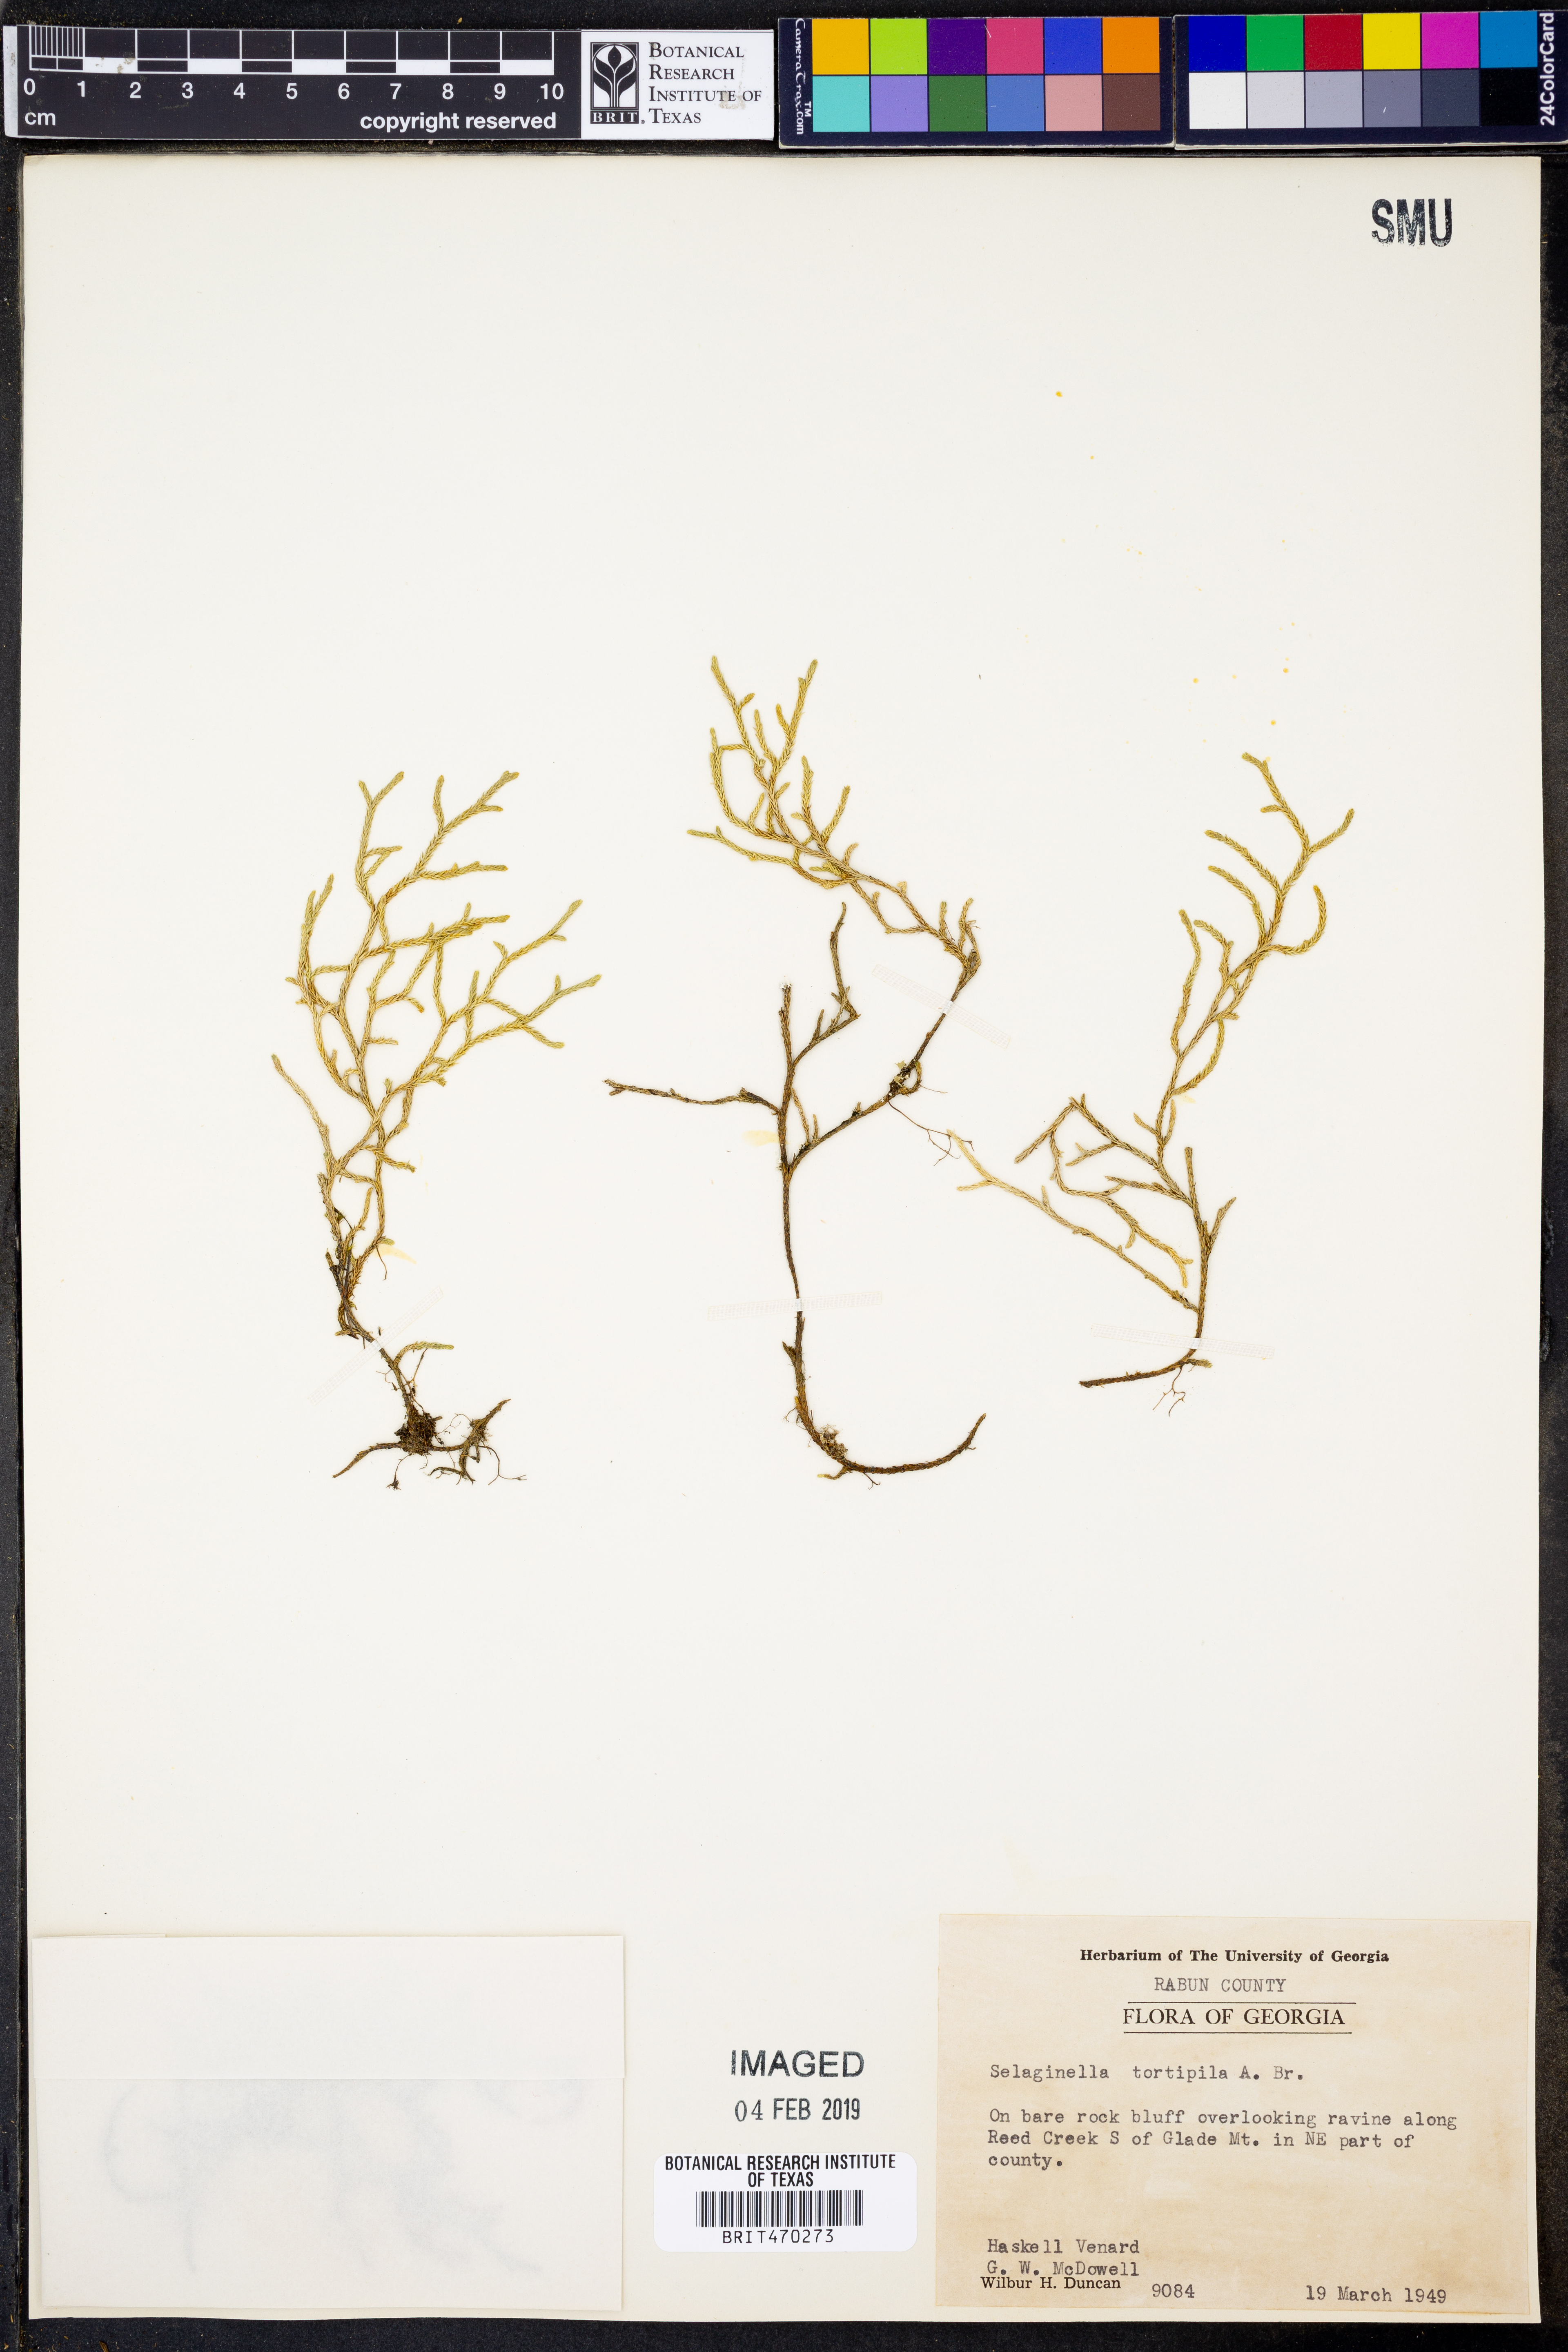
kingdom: Plantae
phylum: Tracheophyta
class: Lycopodiopsida
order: Selaginellales
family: Selaginellaceae
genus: Selaginella
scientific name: Selaginella tortipila
